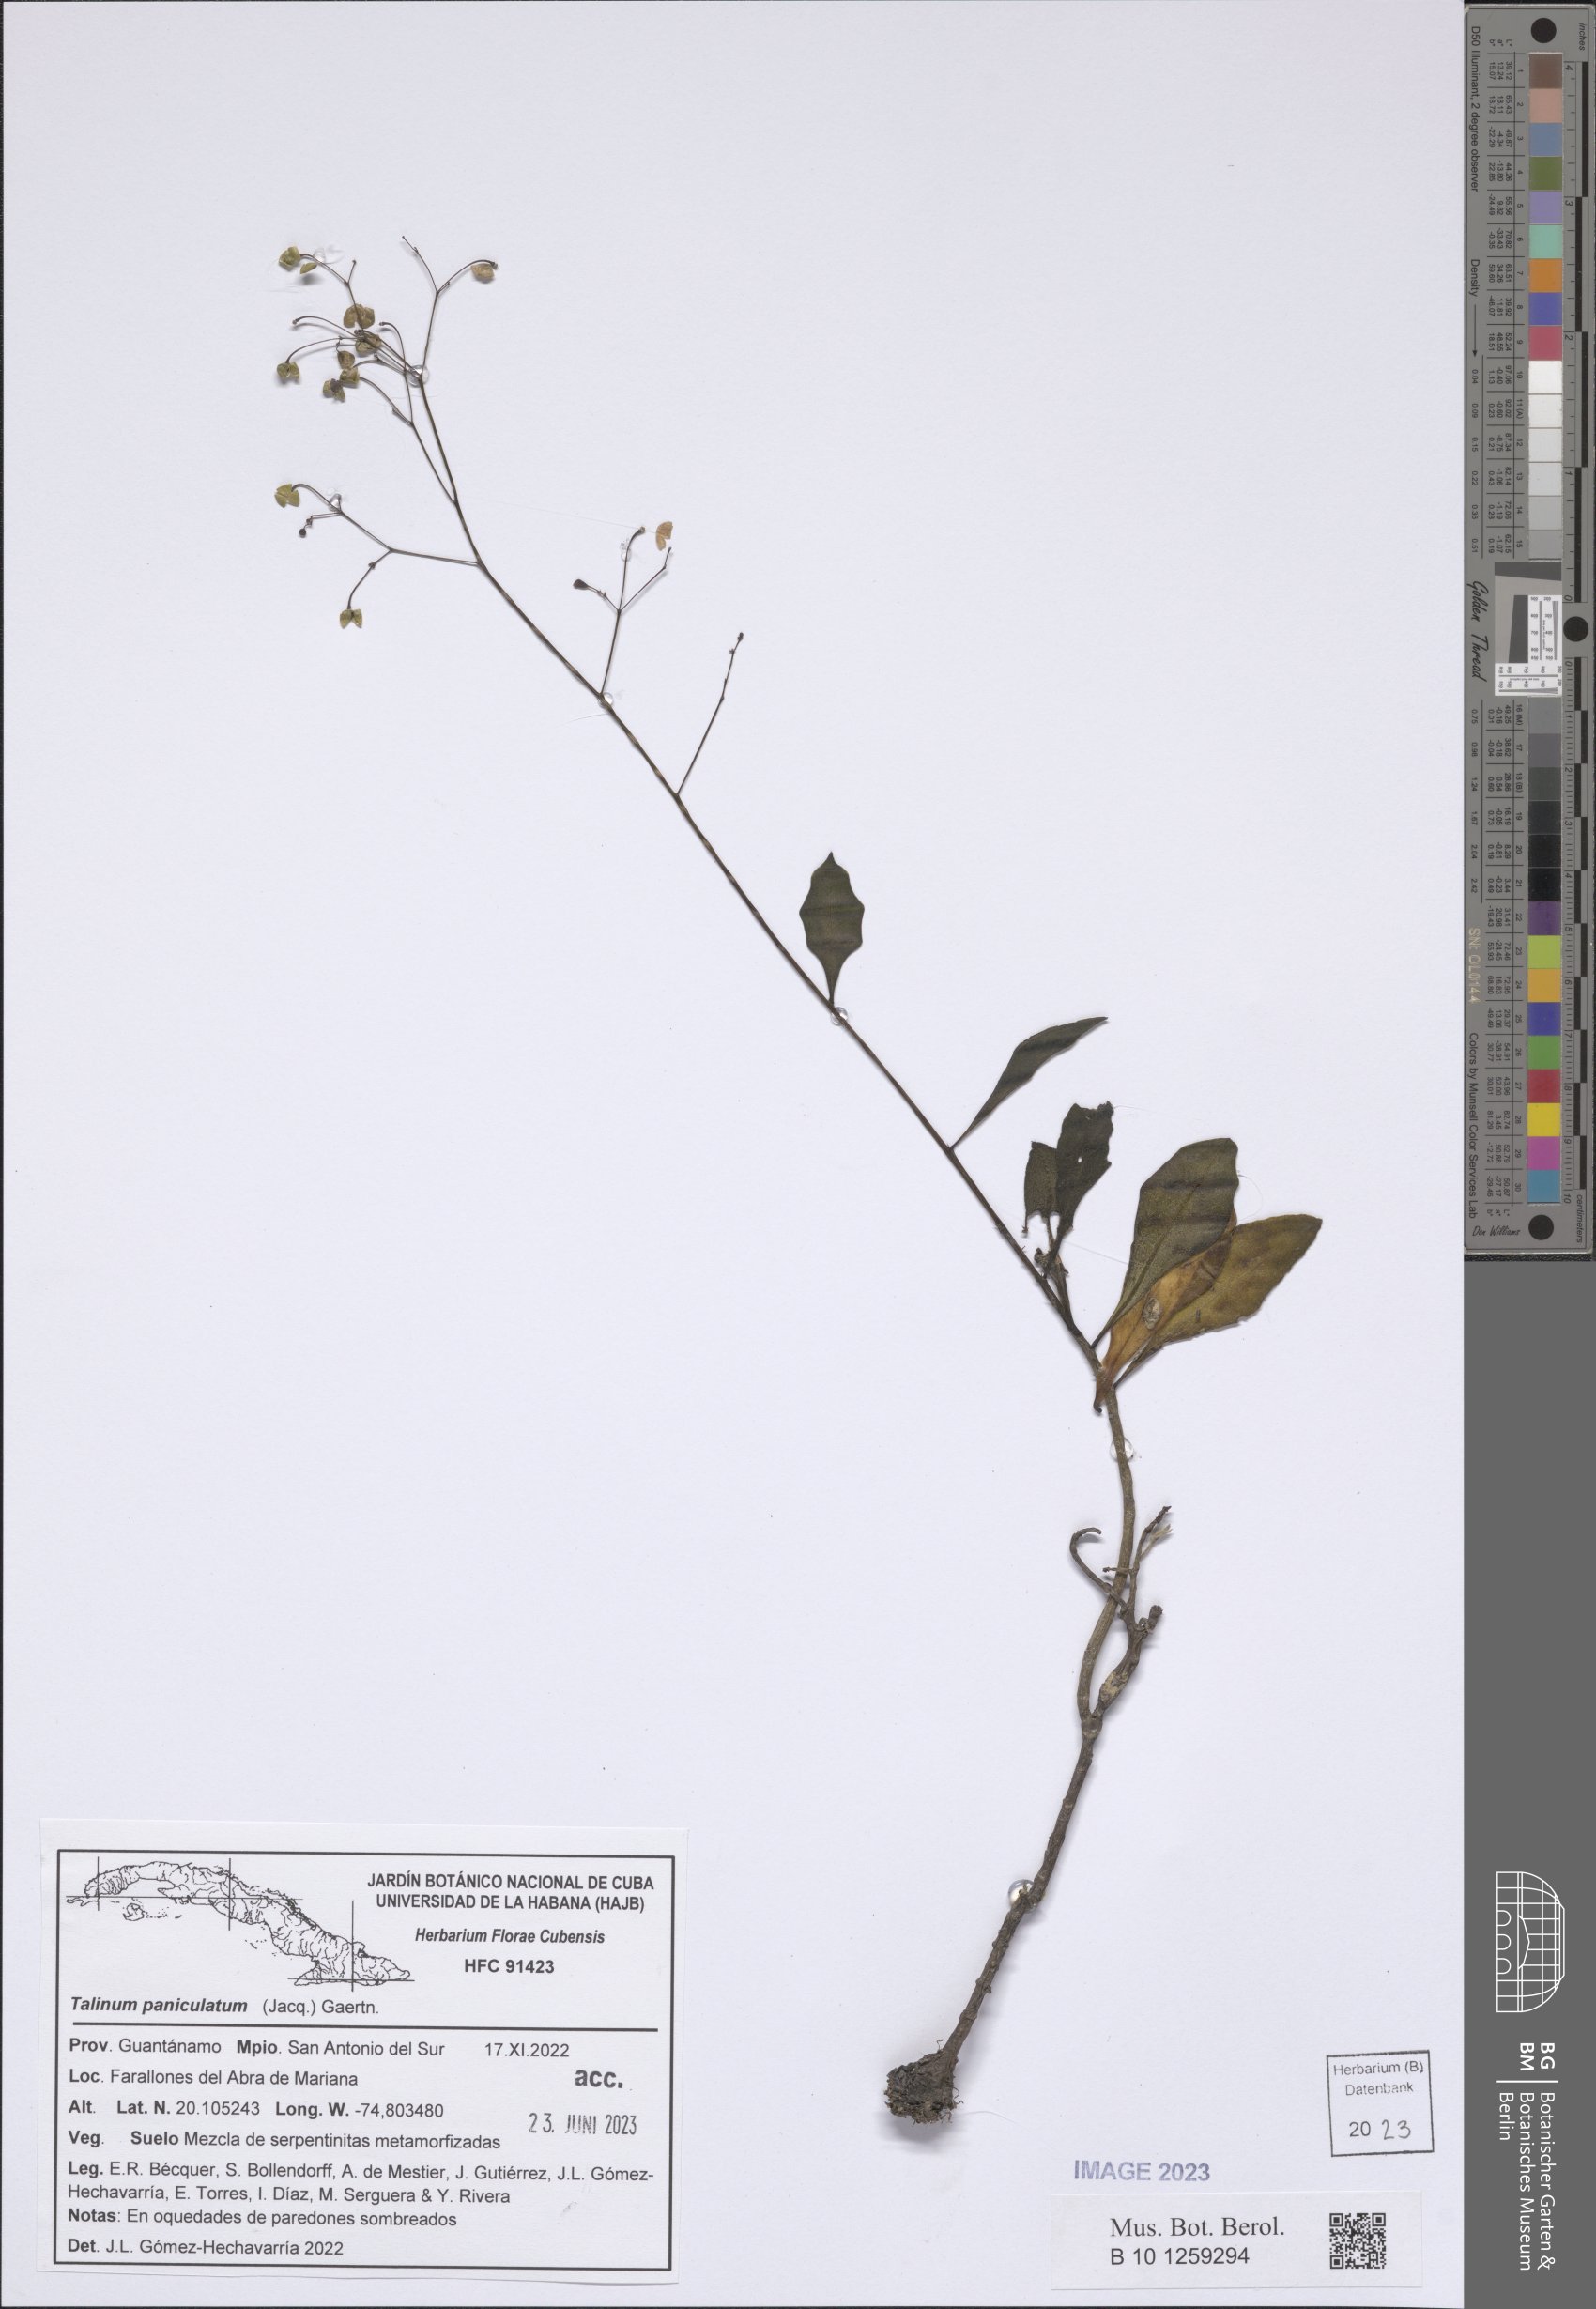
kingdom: Plantae
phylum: Tracheophyta
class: Magnoliopsida
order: Caryophyllales
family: Talinaceae
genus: Talinum
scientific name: Talinum paniculatum
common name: Jewels of opar
